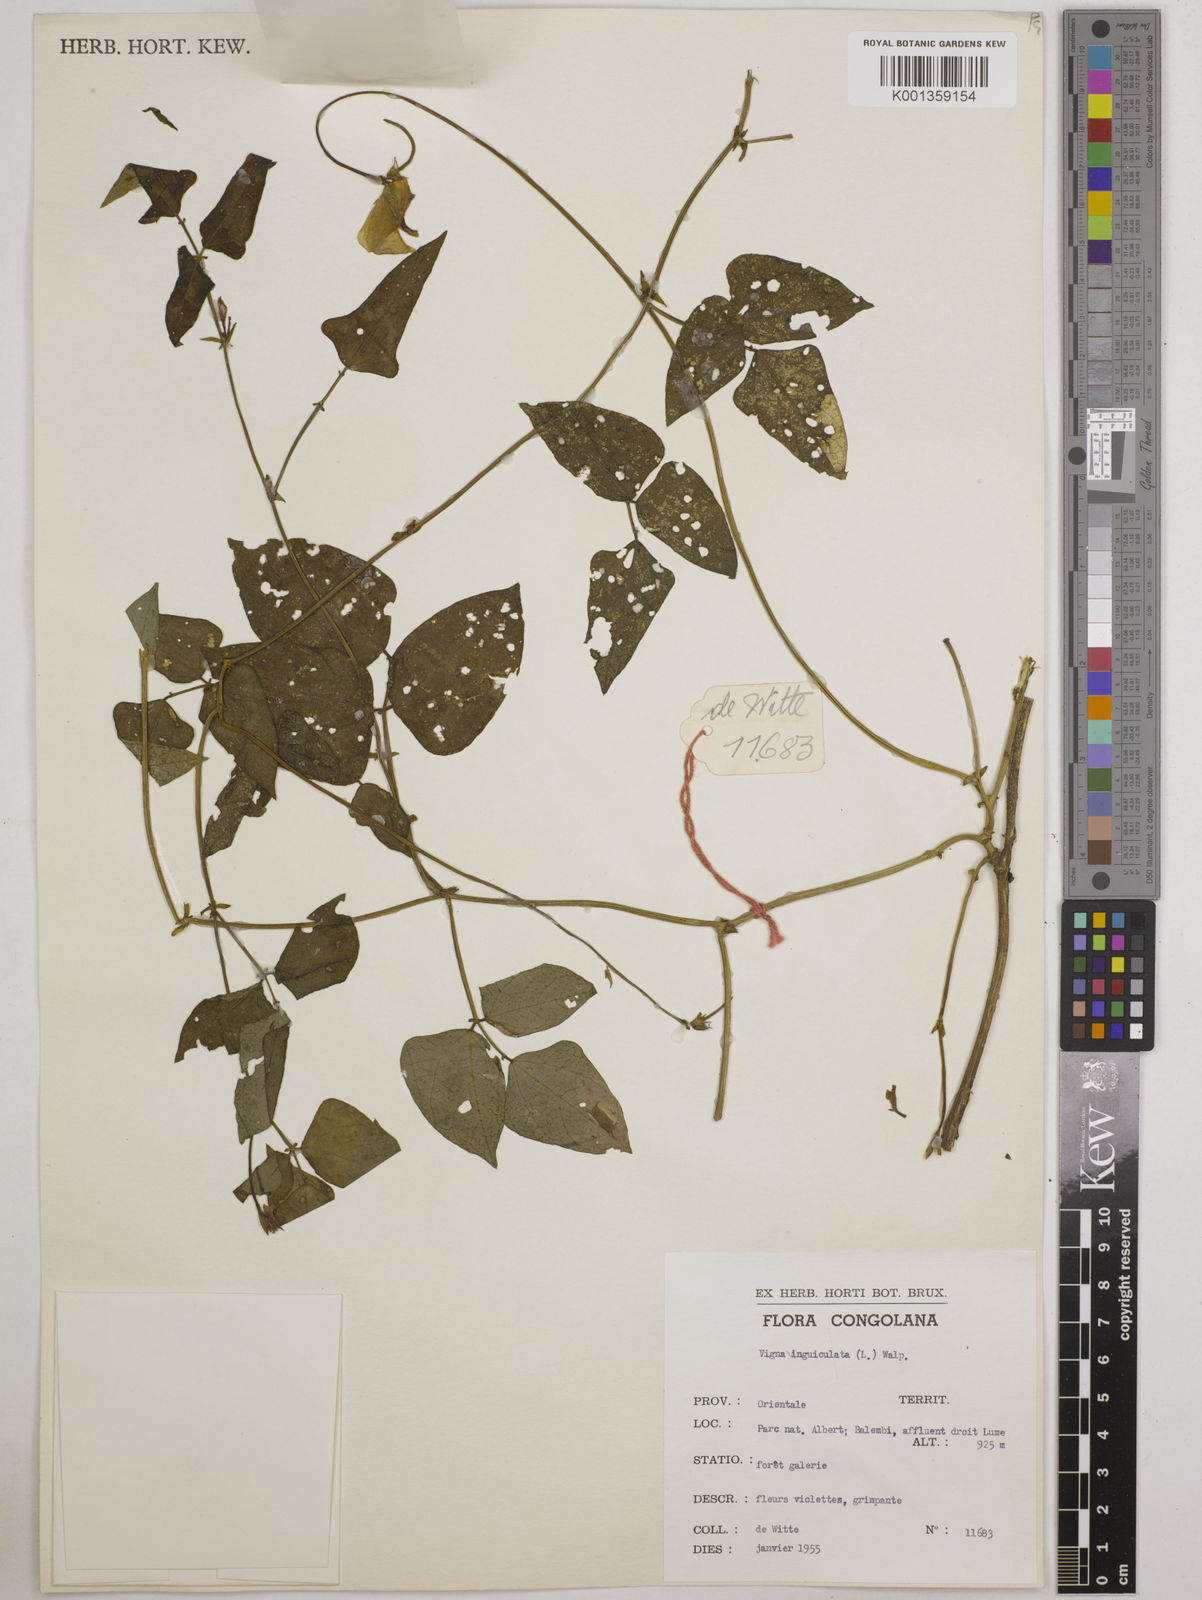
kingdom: Plantae
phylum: Tracheophyta
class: Magnoliopsida
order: Fabales
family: Fabaceae
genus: Vigna
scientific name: Vigna
